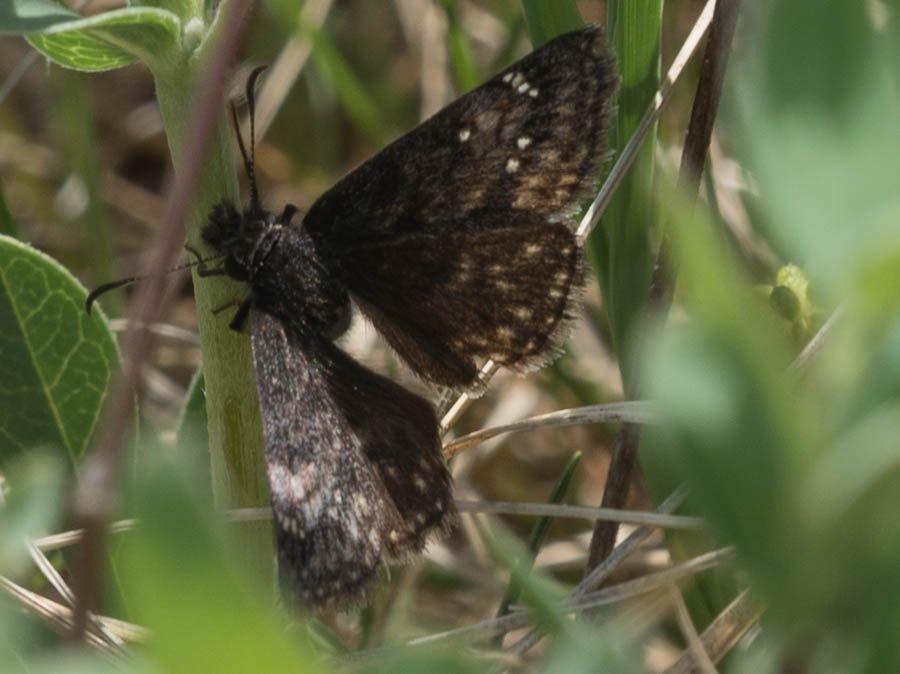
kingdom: Animalia
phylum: Arthropoda
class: Insecta
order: Lepidoptera
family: Hesperiidae
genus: Gesta
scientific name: Gesta
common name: Persius Duskywing
